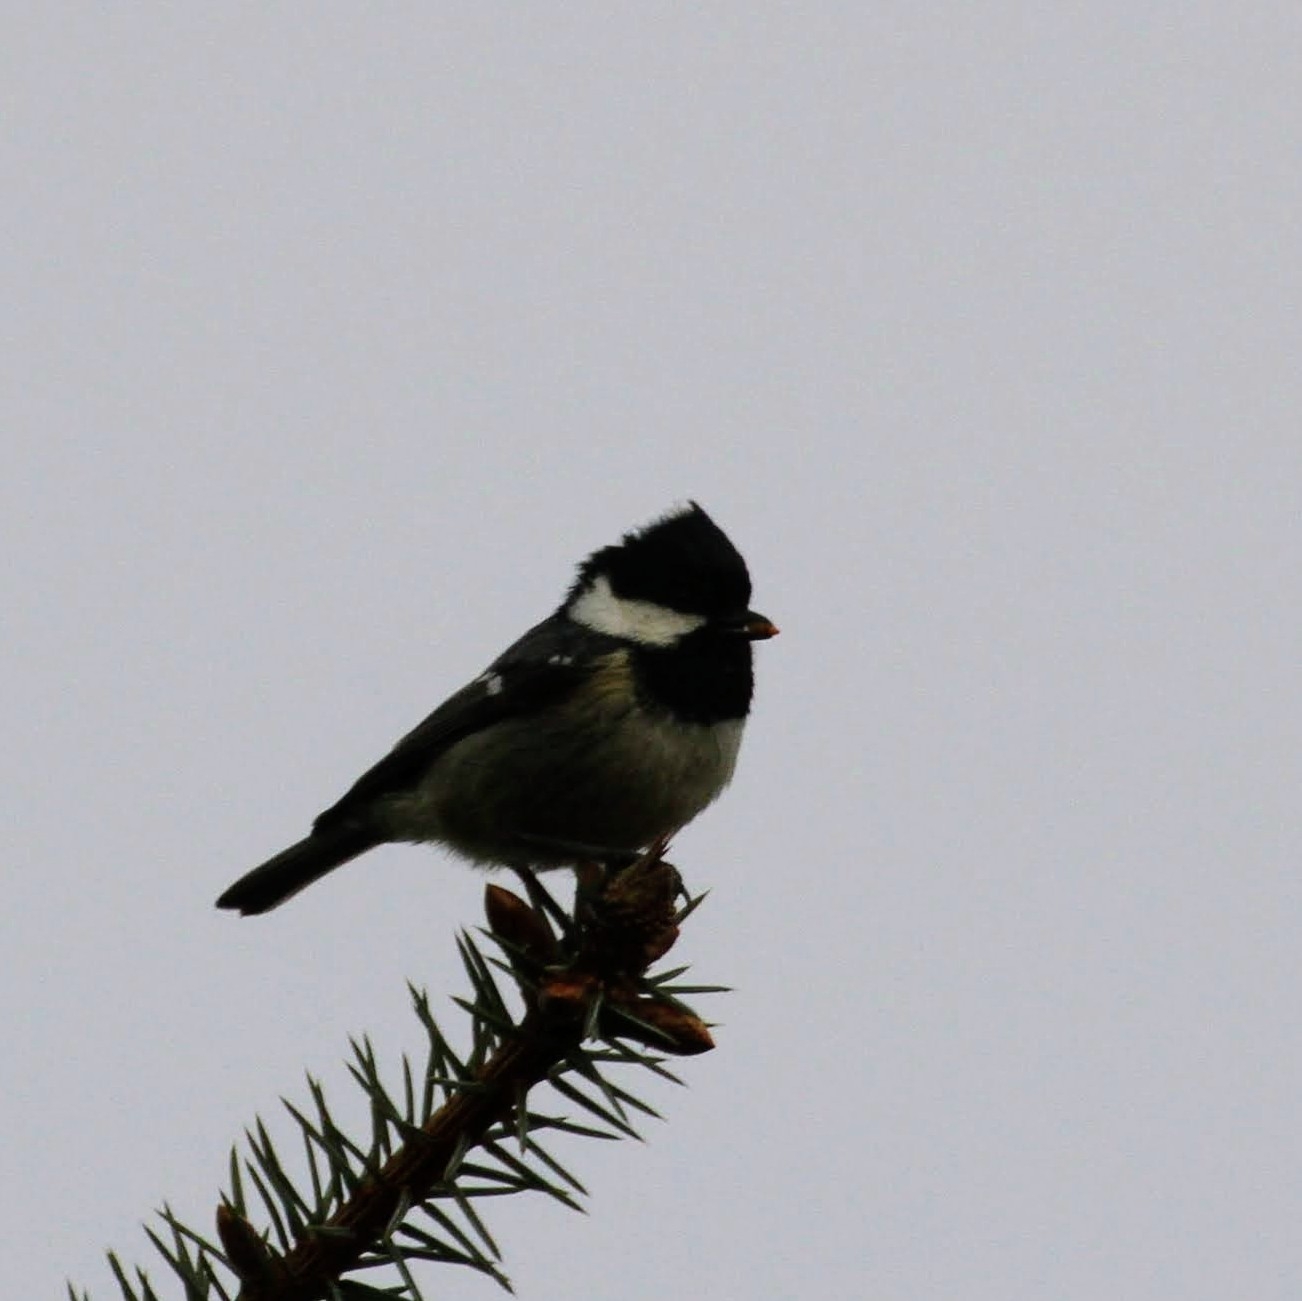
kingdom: Animalia
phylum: Chordata
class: Aves
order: Passeriformes
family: Paridae
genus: Periparus
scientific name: Periparus ater
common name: Sortmejse
